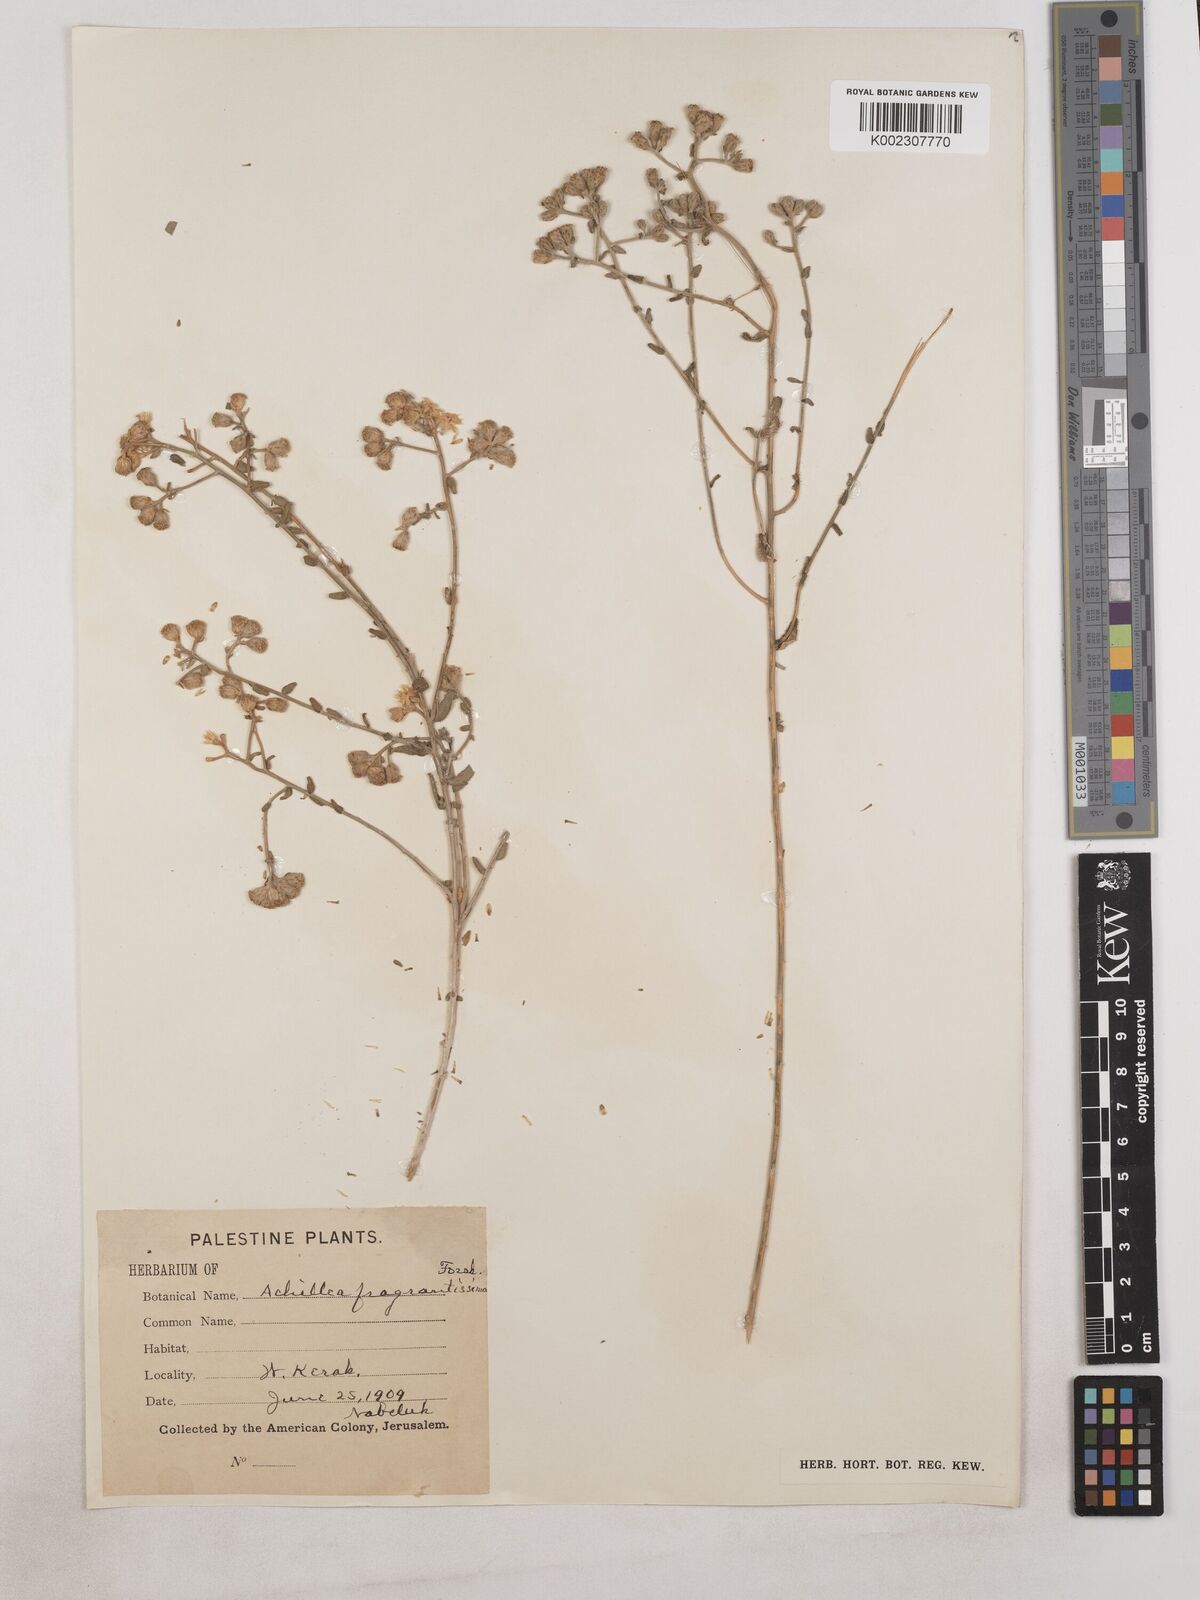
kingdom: Plantae
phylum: Tracheophyta
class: Magnoliopsida
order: Asterales
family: Asteraceae
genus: Achillea
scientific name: Achillea fragrantissima
